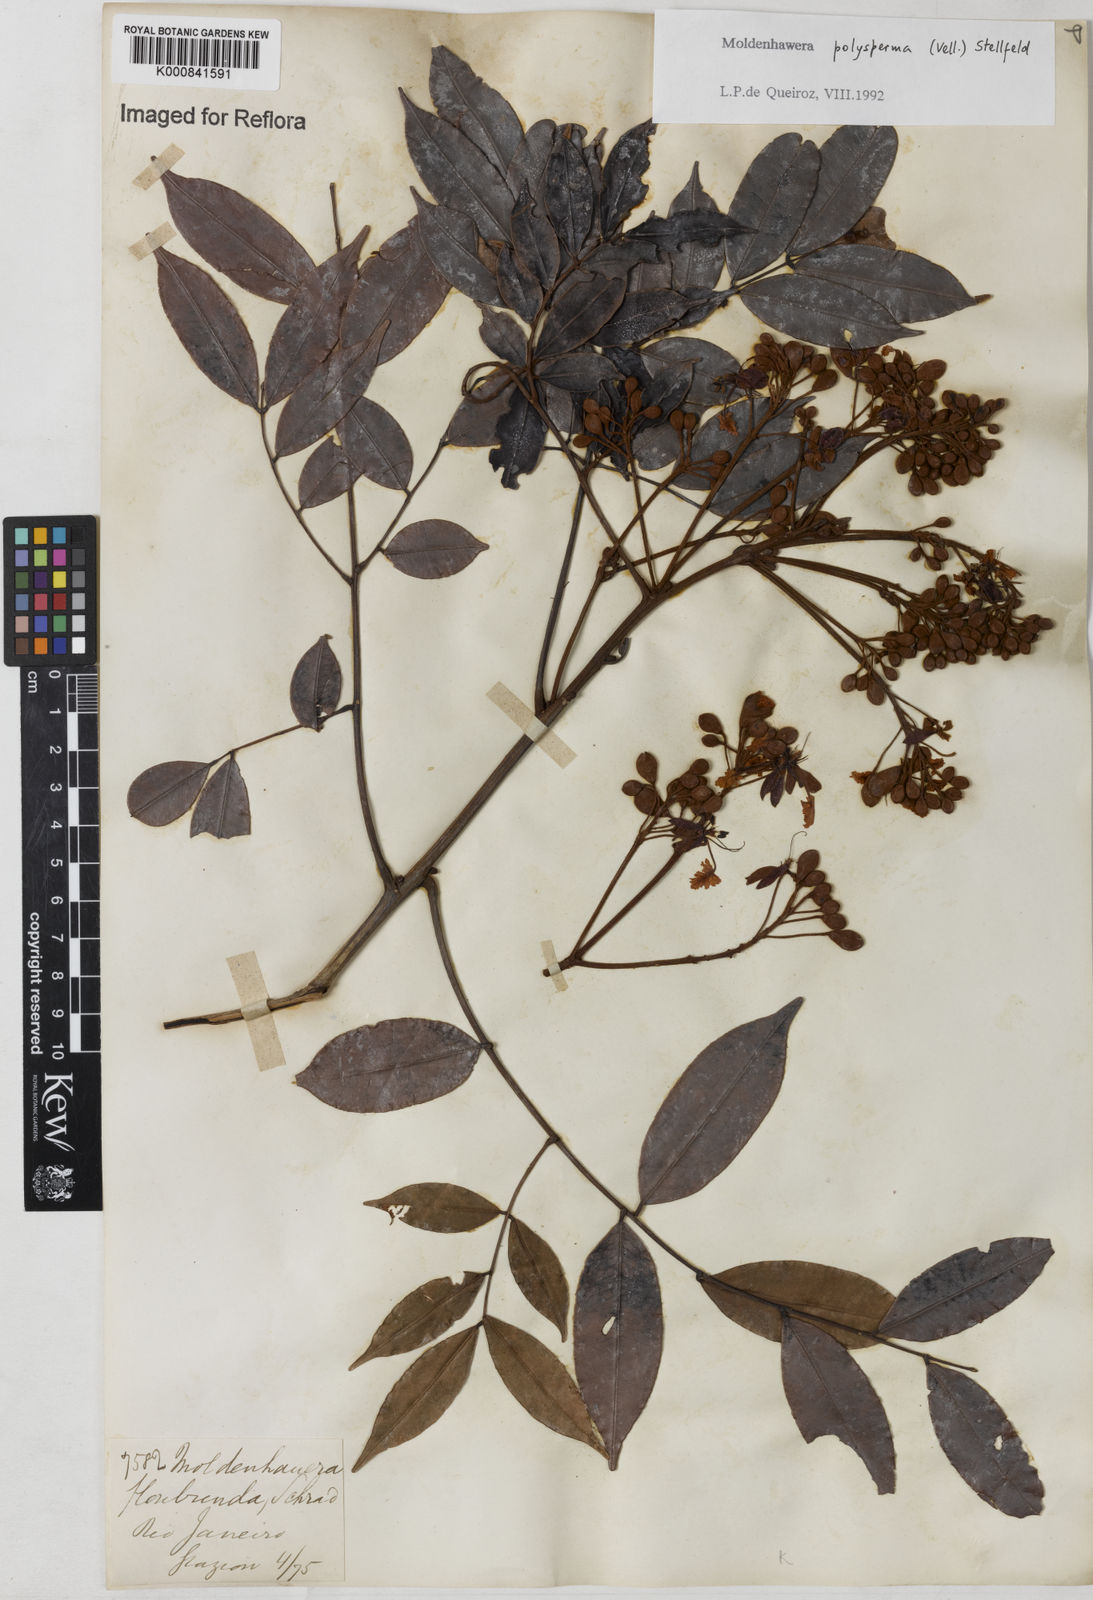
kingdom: Plantae
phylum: Tracheophyta
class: Magnoliopsida
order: Fabales
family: Fabaceae
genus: Moldenhawera
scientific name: Moldenhawera polysperma
